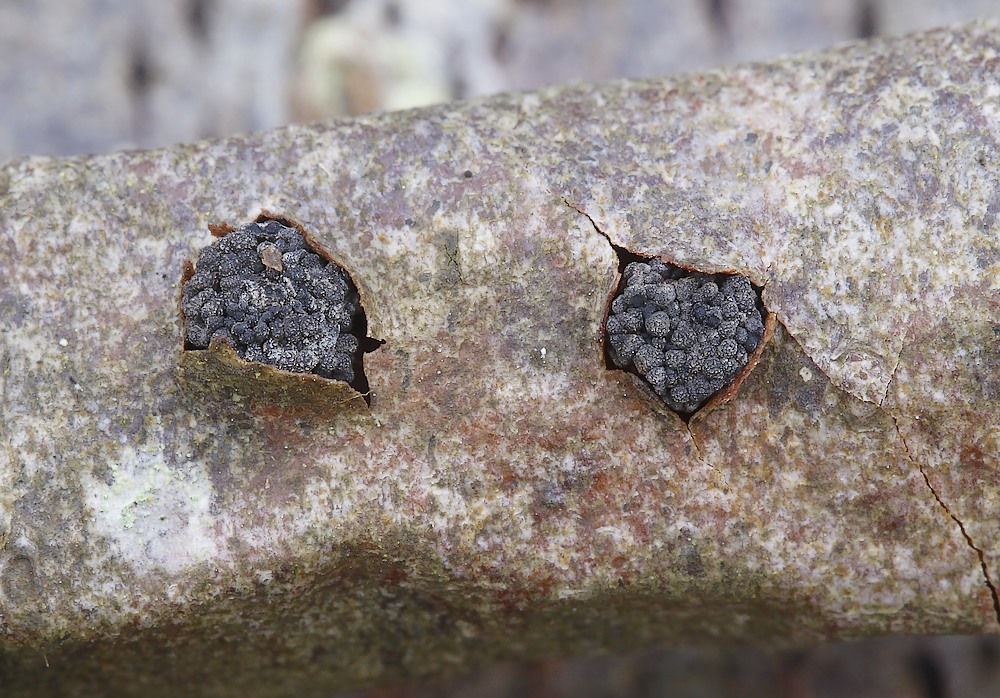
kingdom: Fungi
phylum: Ascomycota
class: Leotiomycetes
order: Leotiales
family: Tympanidaceae
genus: Tympanis
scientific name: Tympanis conspersa
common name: rønne-knippeskive
